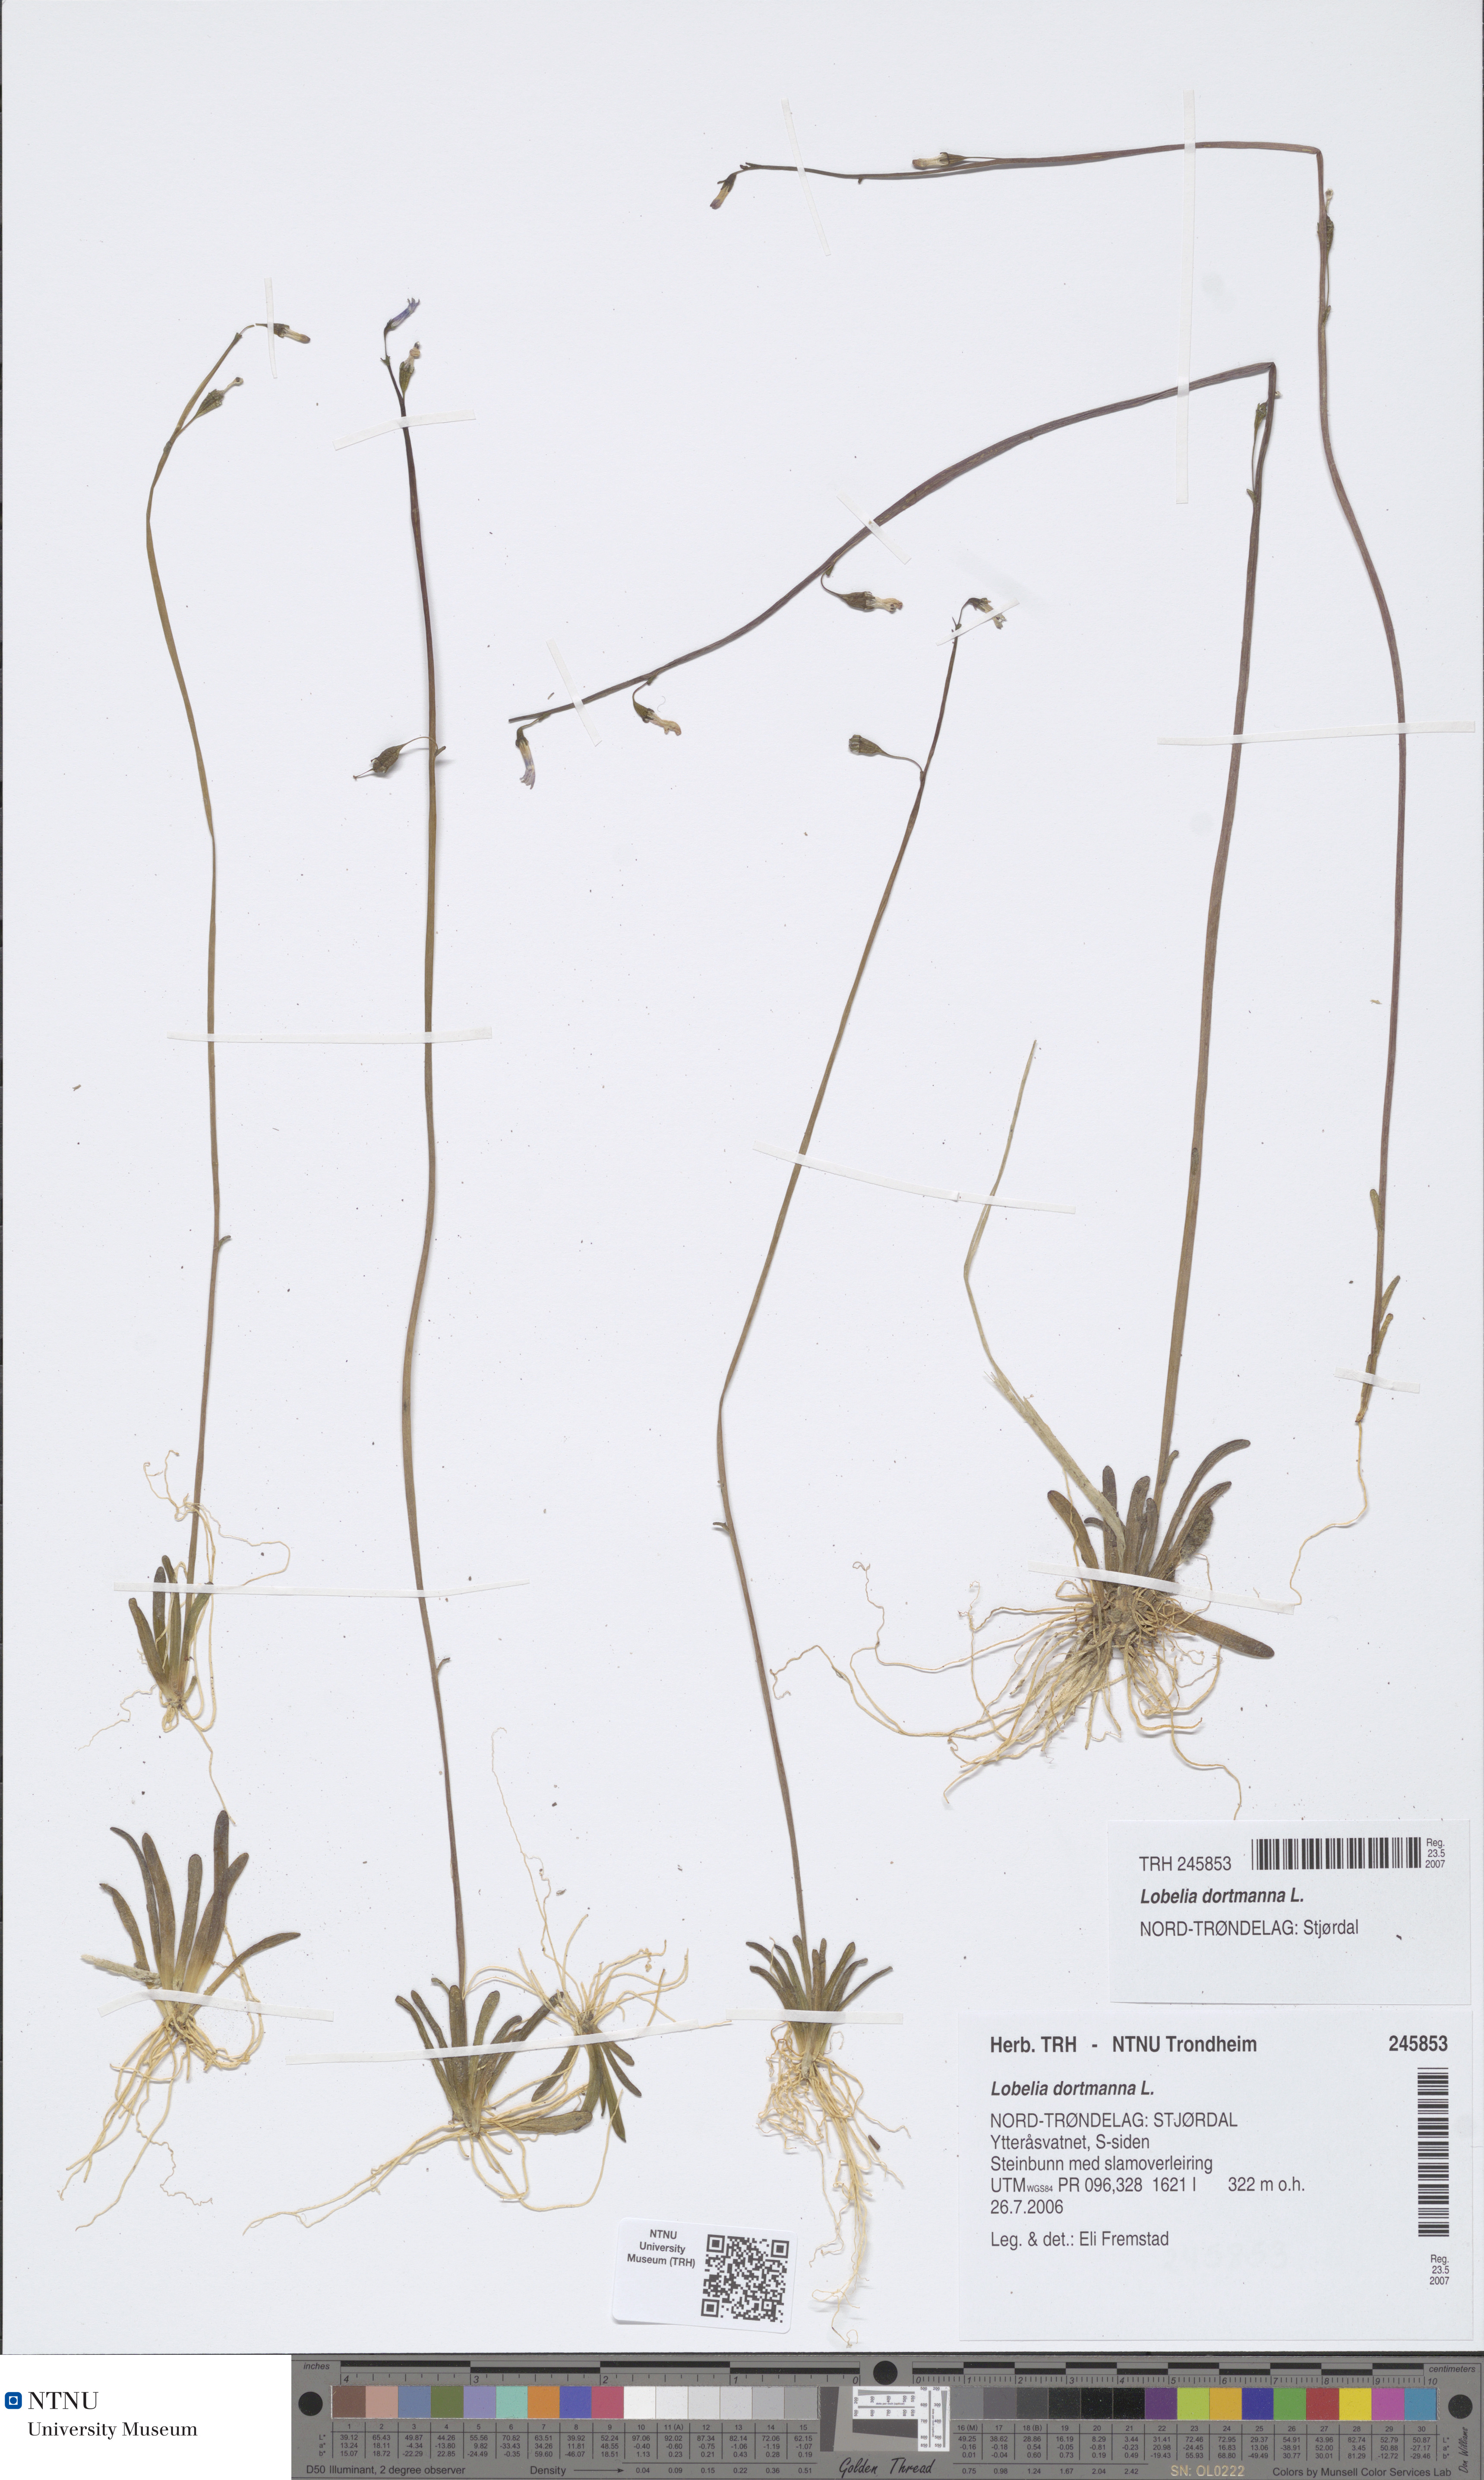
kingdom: Plantae
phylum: Tracheophyta
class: Magnoliopsida
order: Asterales
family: Campanulaceae
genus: Lobelia
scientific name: Lobelia dortmanna
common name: Water lobelia
